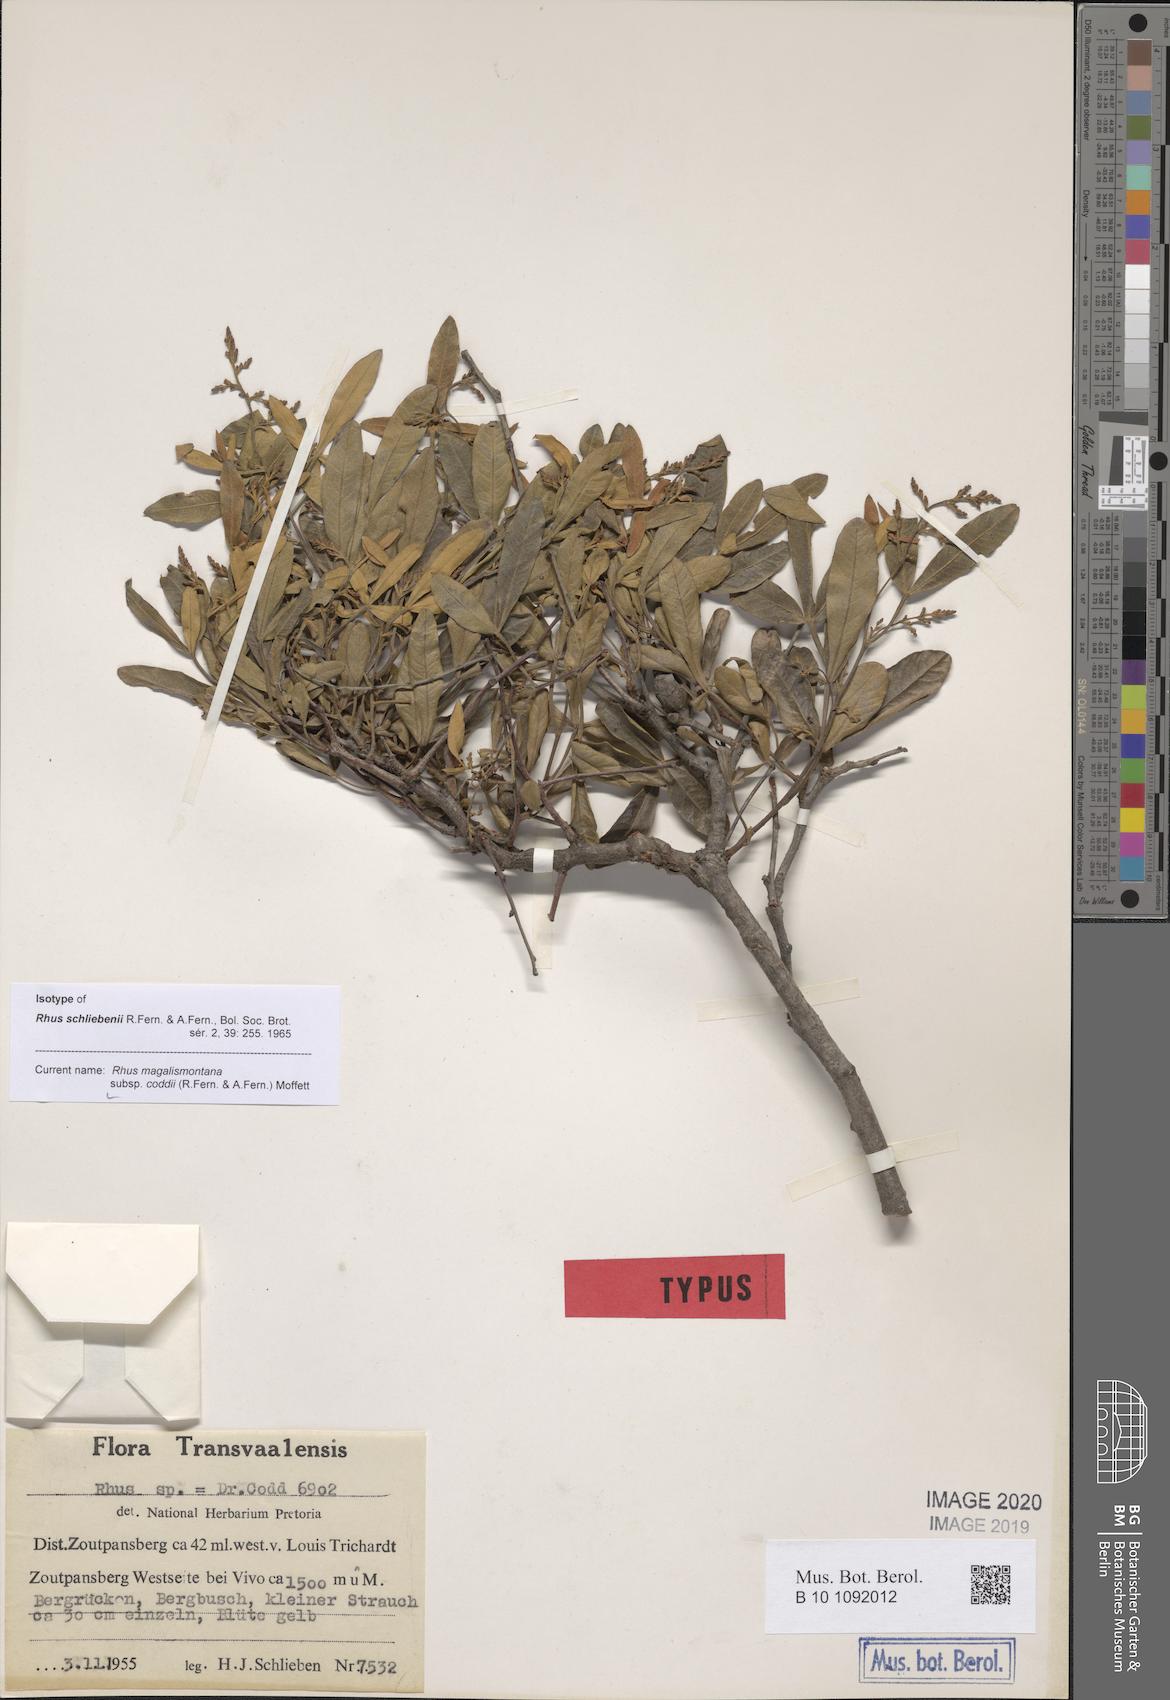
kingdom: Plantae
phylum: Tracheophyta
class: Magnoliopsida
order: Sapindales
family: Anacardiaceae
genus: Searsia
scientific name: Searsia magalismontana
